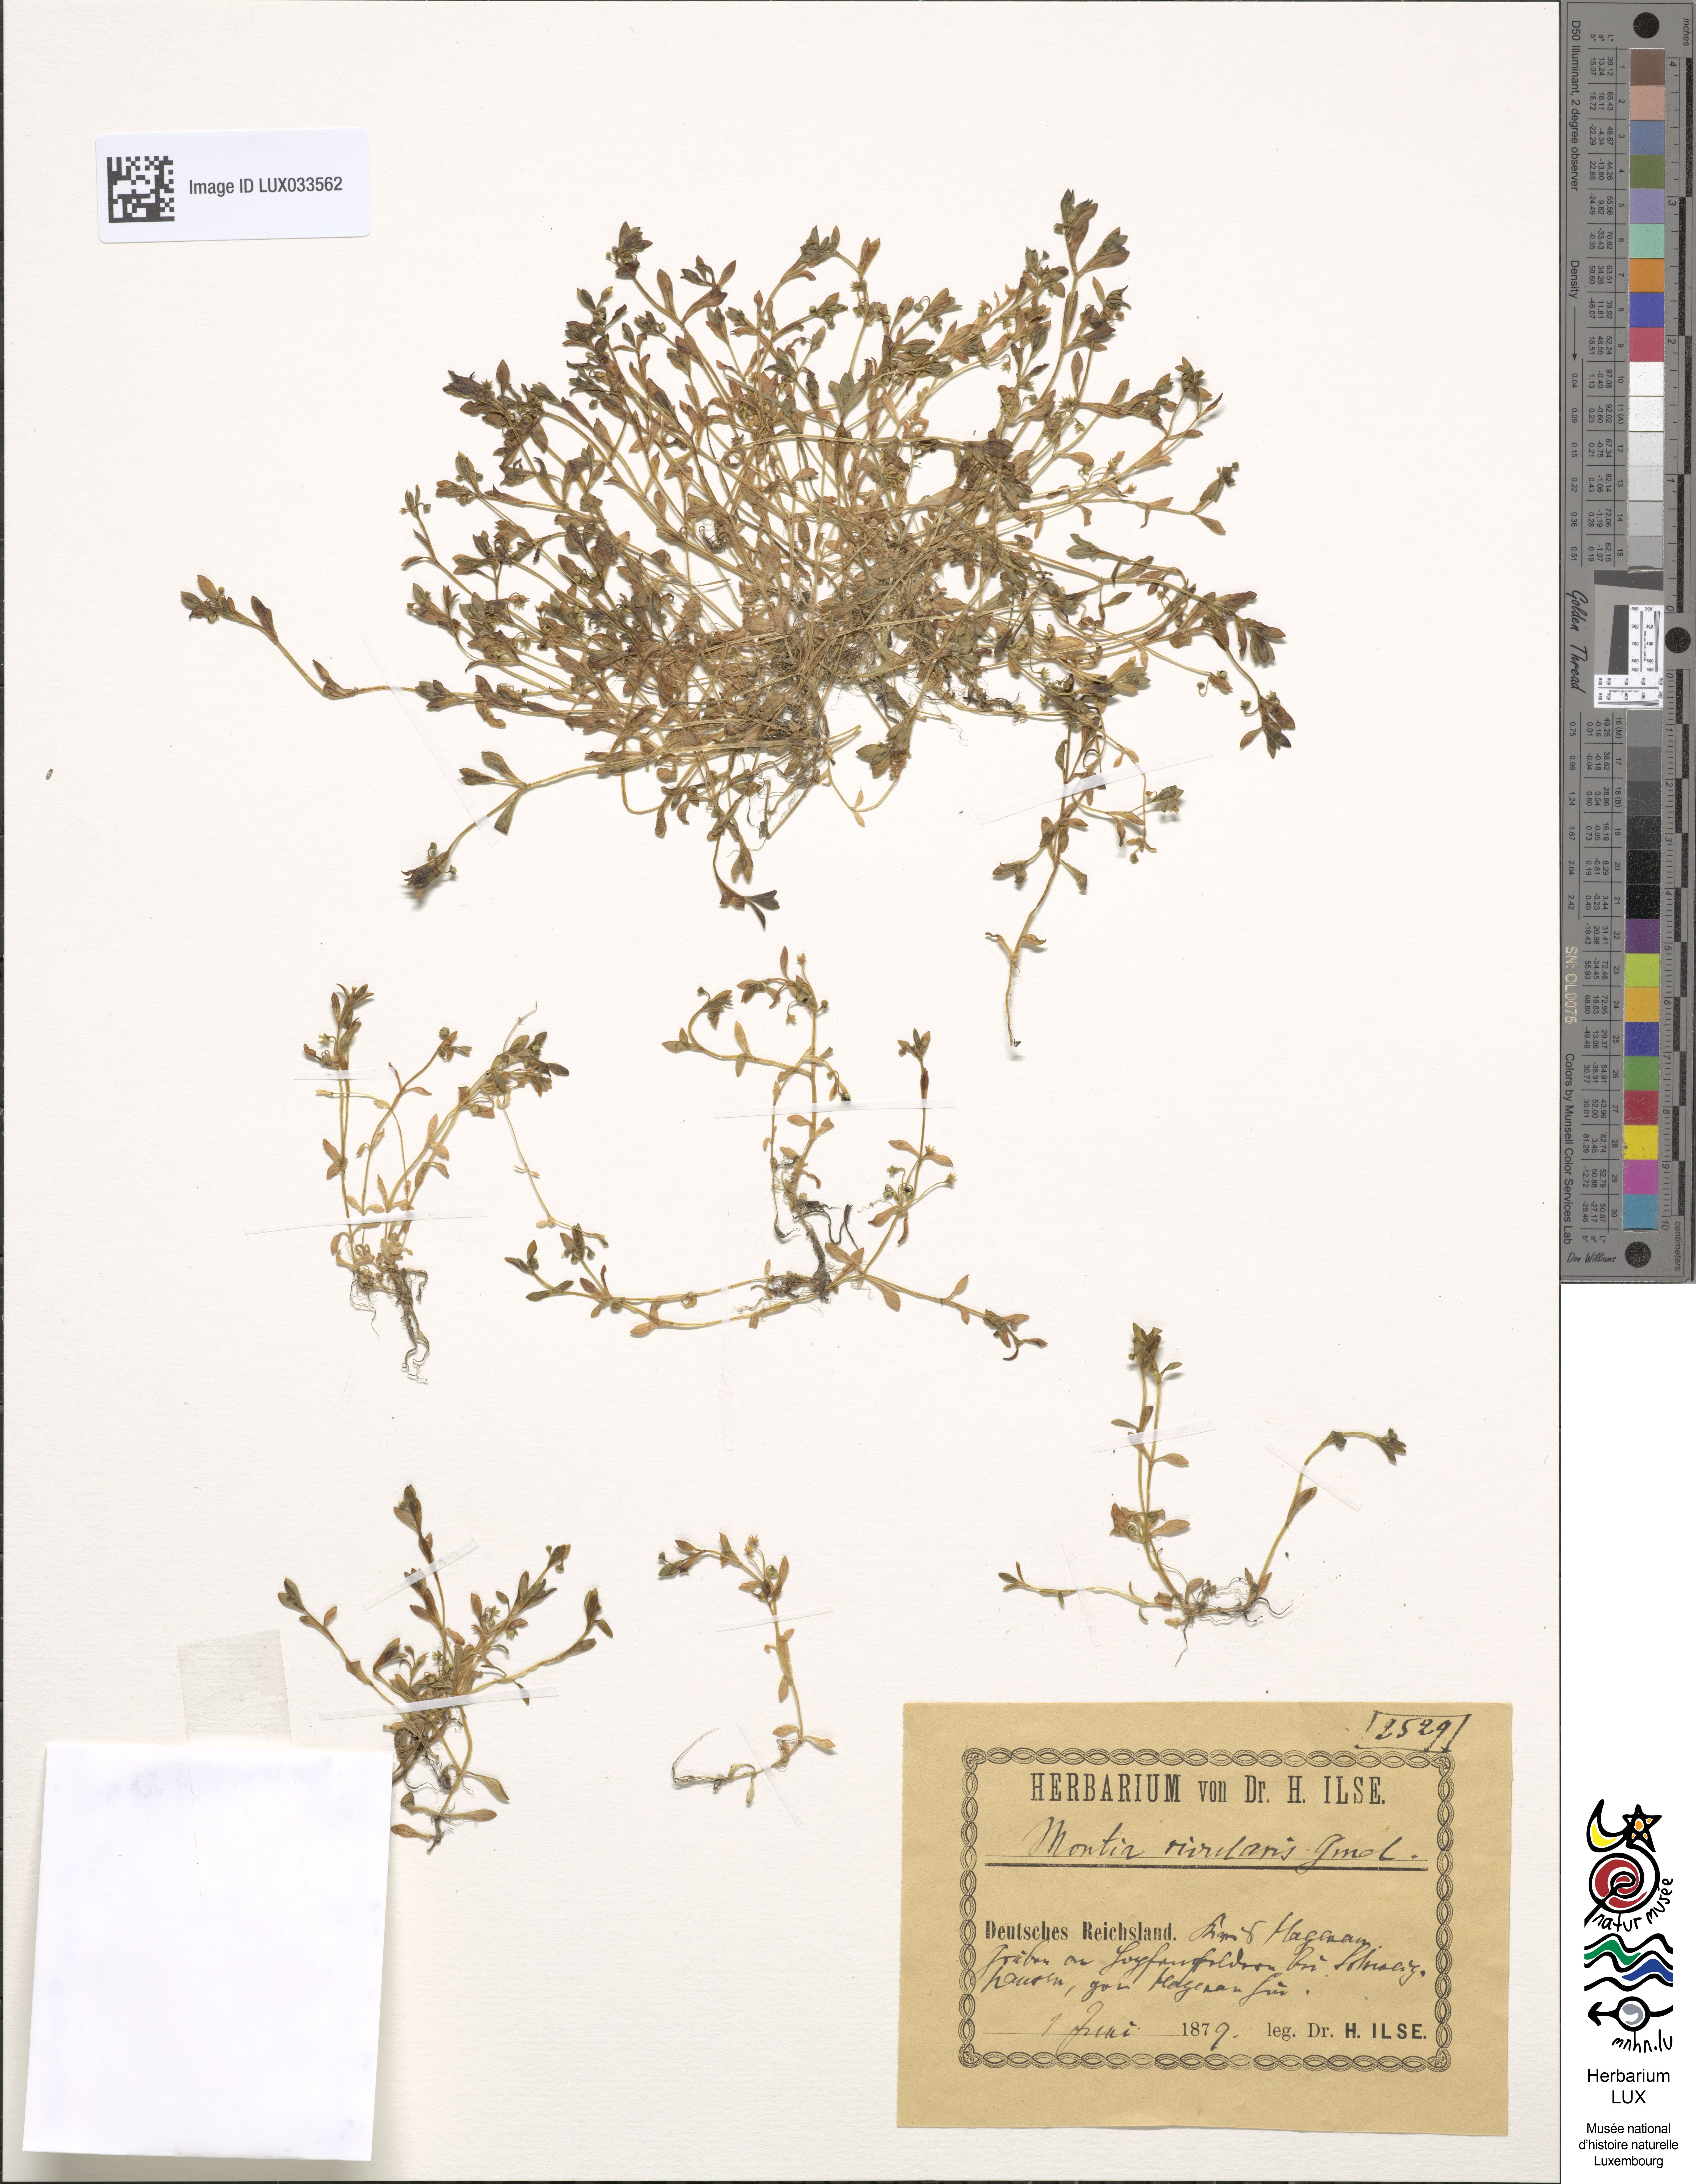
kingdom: Plantae
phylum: Tracheophyta
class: Magnoliopsida
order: Caryophyllales
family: Montiaceae
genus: Montia
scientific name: Montia fontana
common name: Blinks
